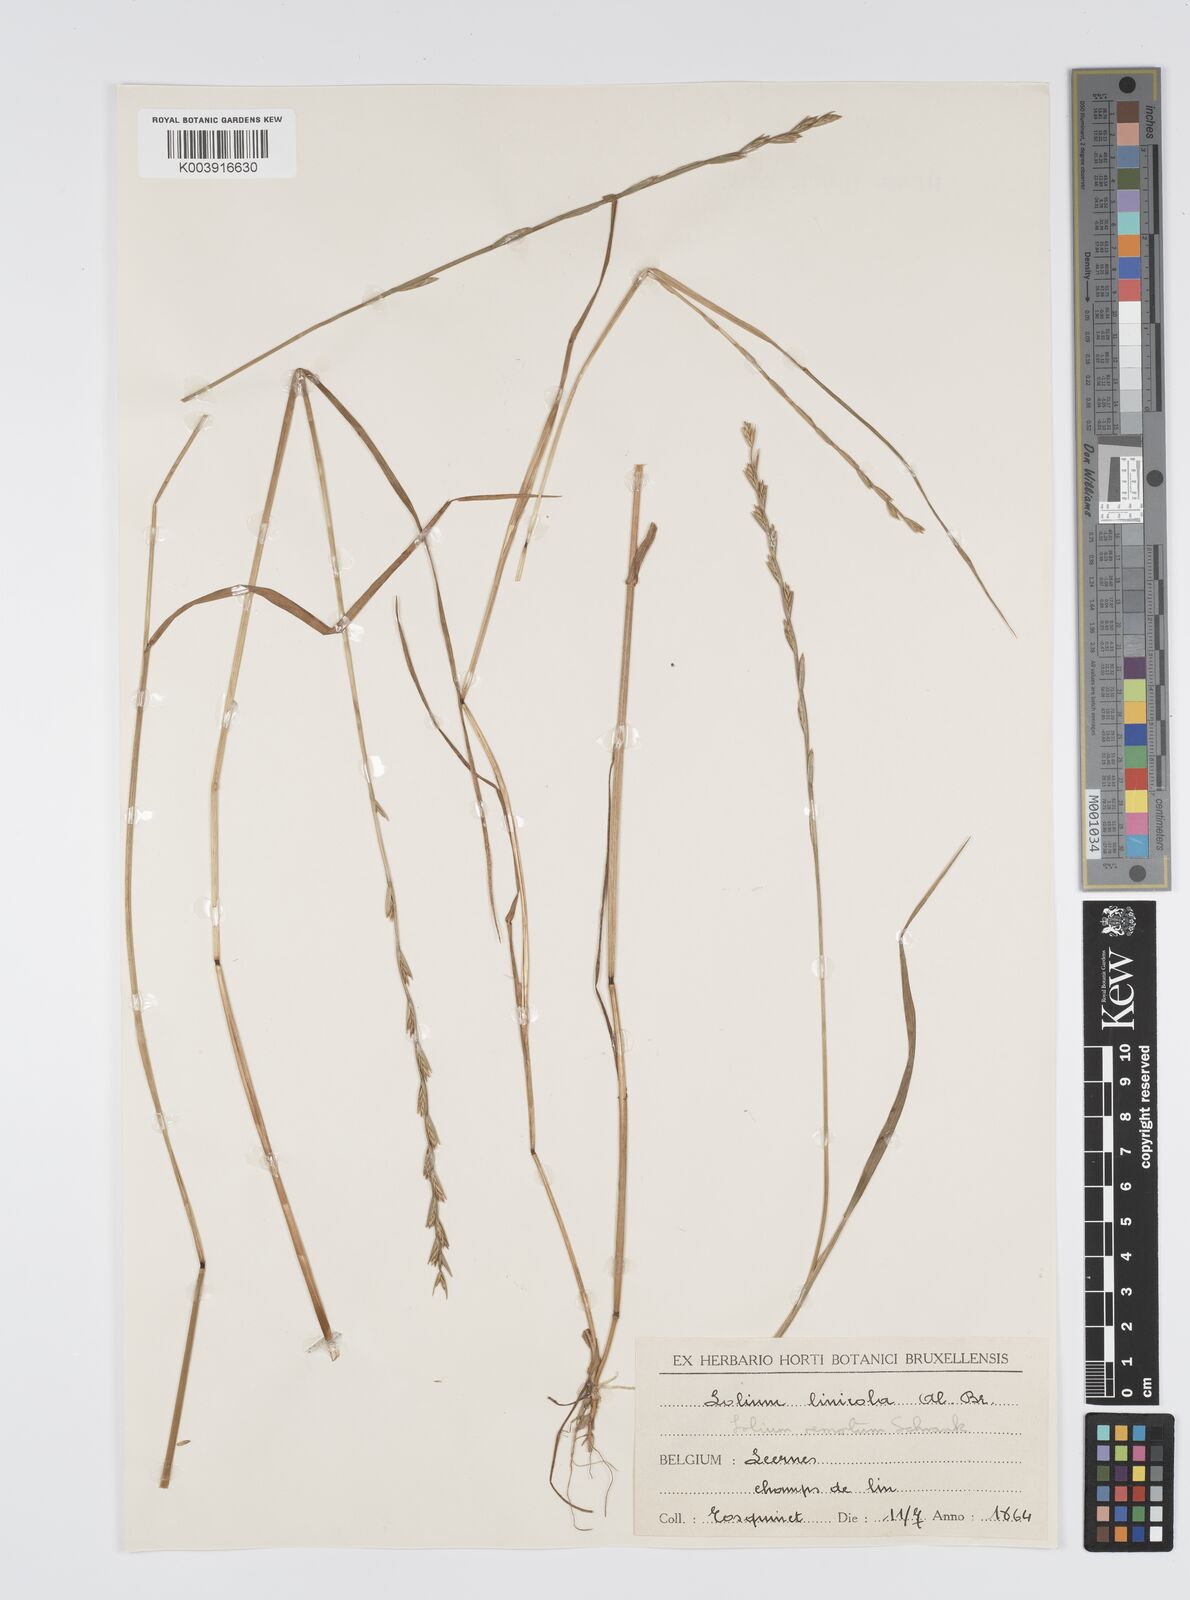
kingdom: Plantae
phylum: Tracheophyta
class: Liliopsida
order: Poales
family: Poaceae
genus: Lolium
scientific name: Lolium remotum
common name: Flaxfield rye-grass
